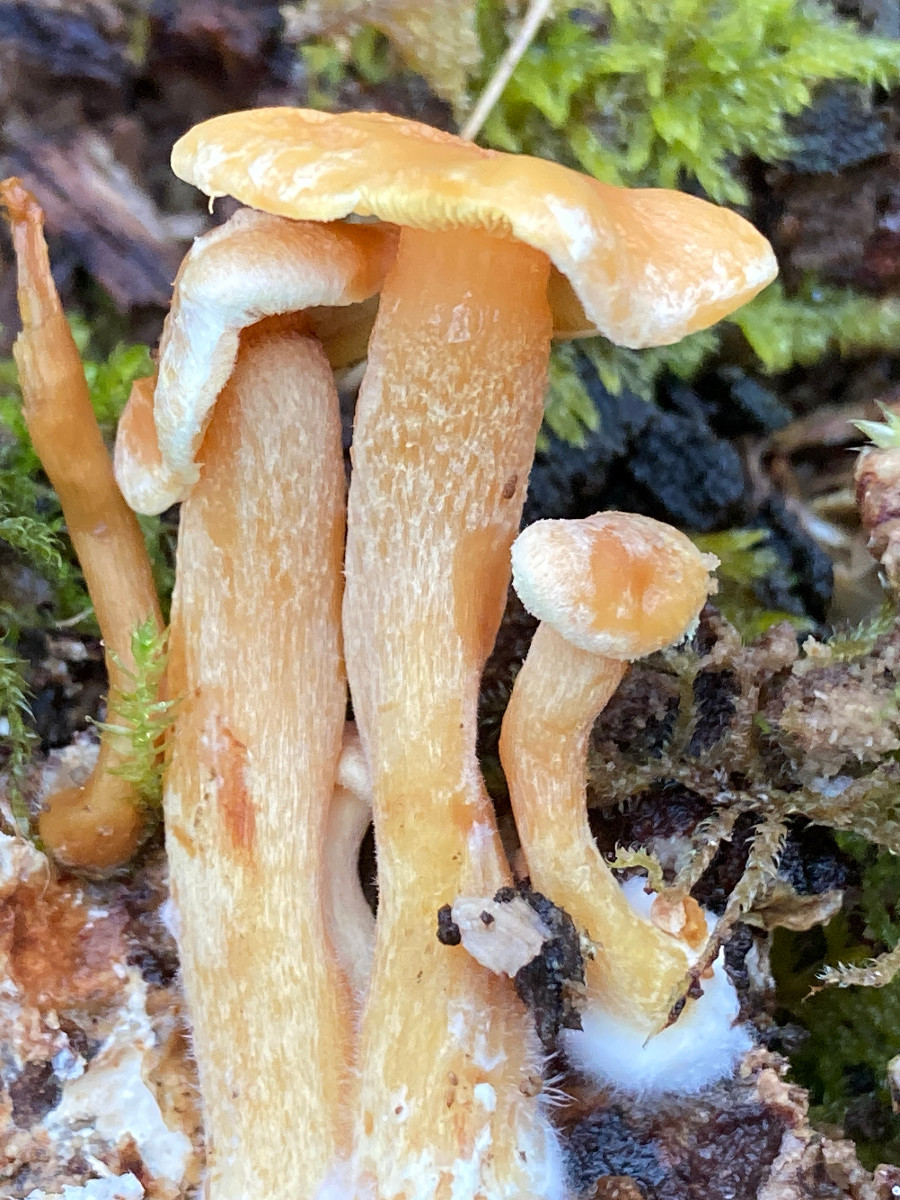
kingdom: Fungi
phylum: Basidiomycota
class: Agaricomycetes
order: Agaricales
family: Strophariaceae
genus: Hypholoma
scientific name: Hypholoma fasciculare
